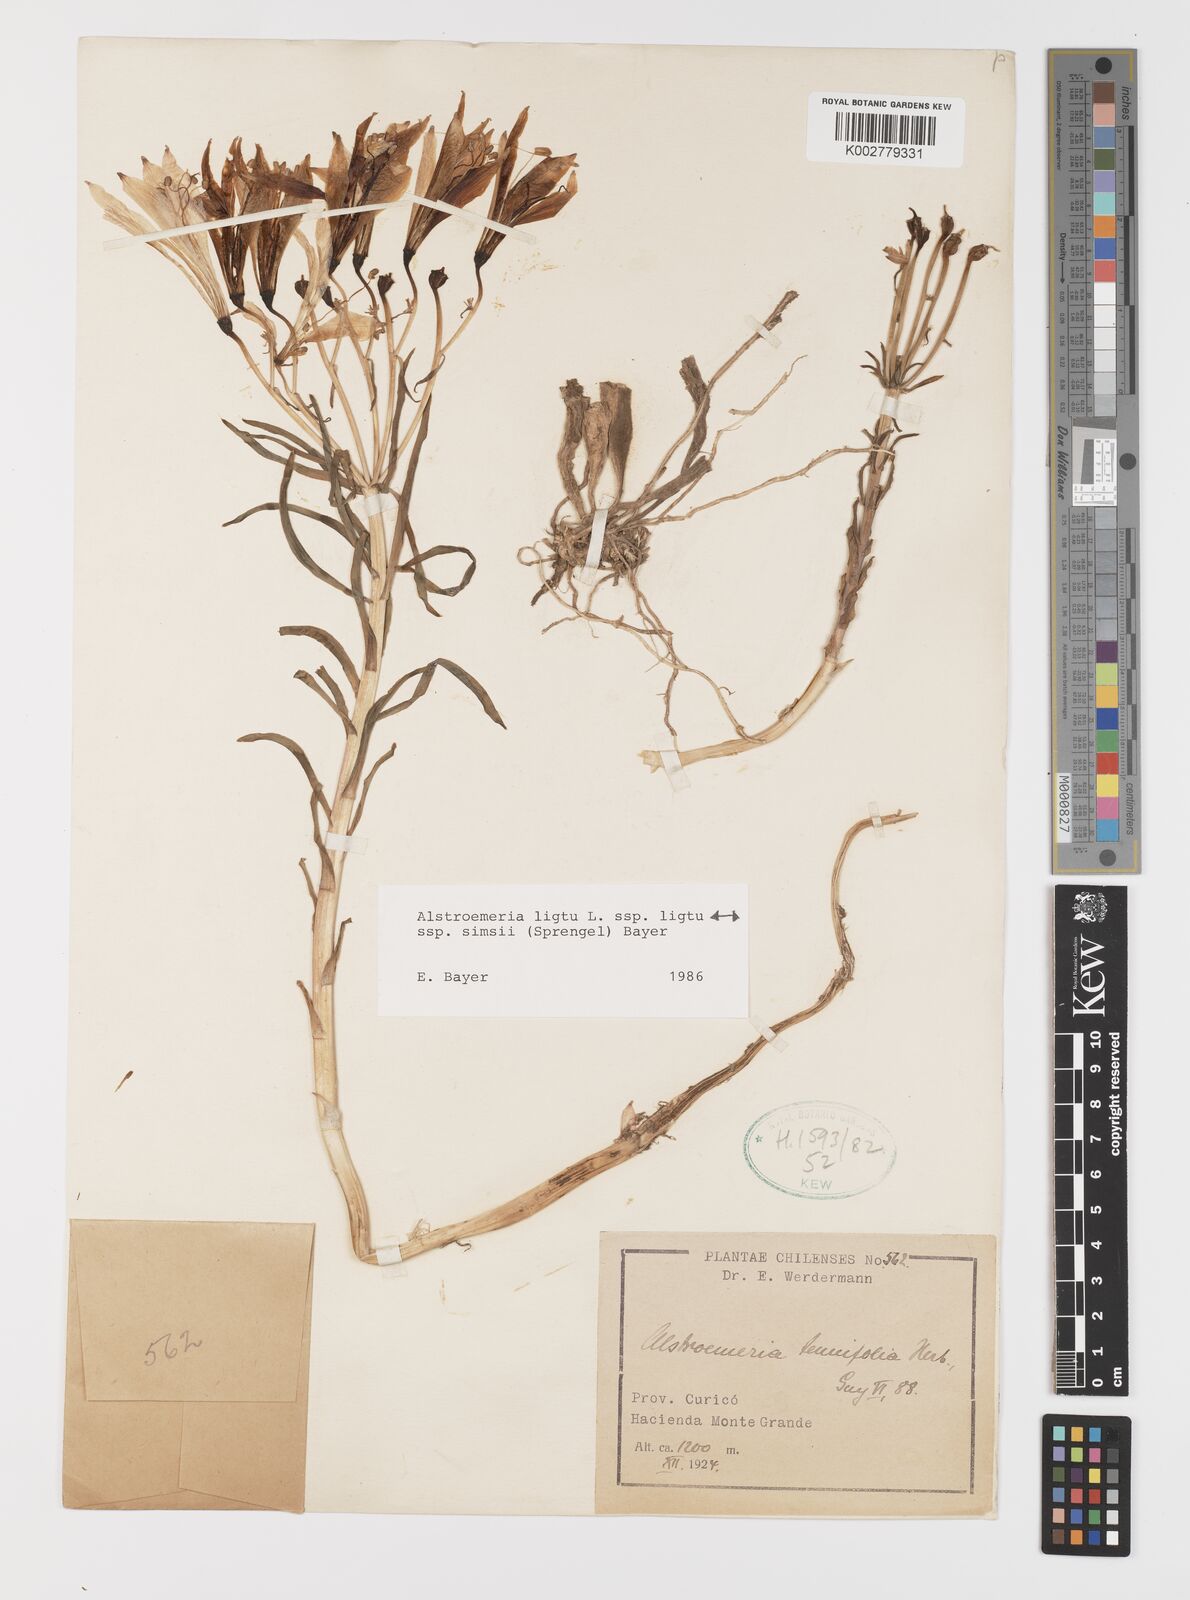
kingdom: Plantae
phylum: Tracheophyta
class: Liliopsida
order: Liliales
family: Alstroemeriaceae
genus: Alstroemeria
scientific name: Alstroemeria ligtu
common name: St. martin's-flower
